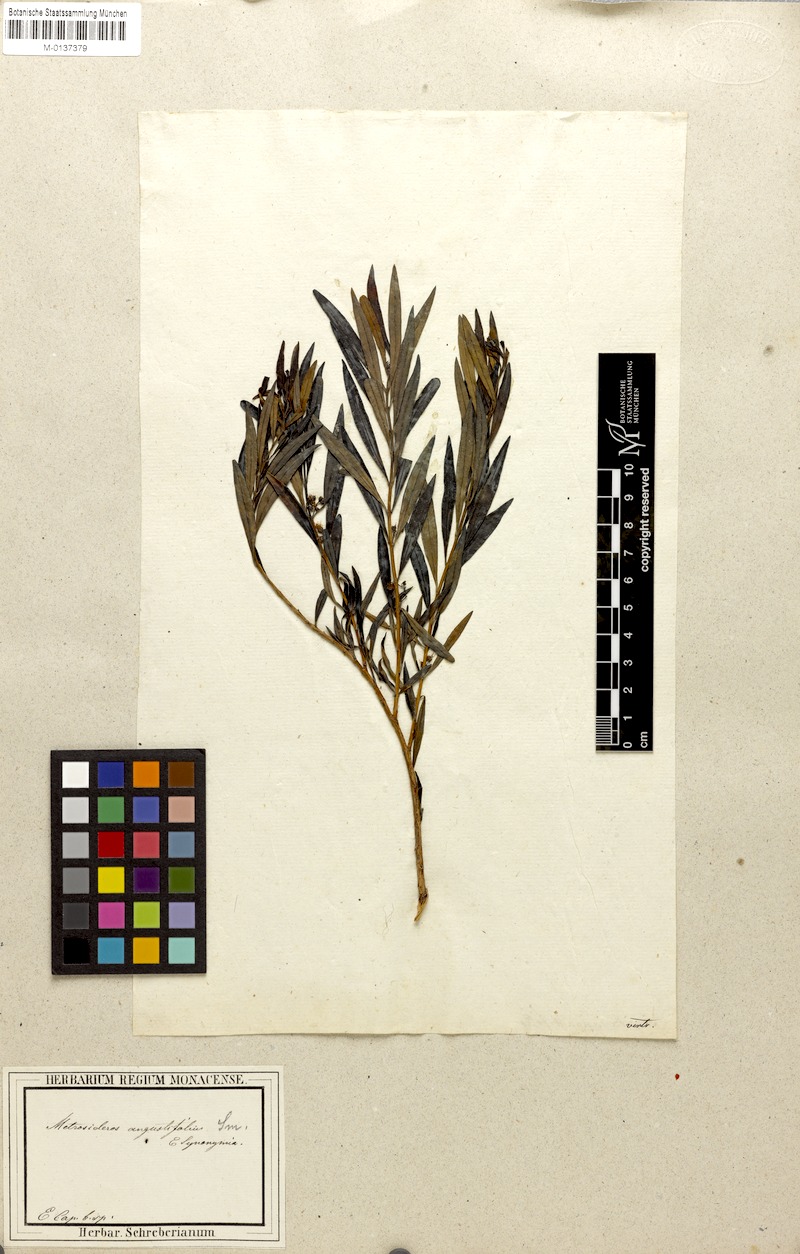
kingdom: Plantae
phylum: Tracheophyta
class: Magnoliopsida
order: Myrtales
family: Myrtaceae
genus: Metrosideros
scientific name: Metrosideros angustifolius
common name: Cape-gum
